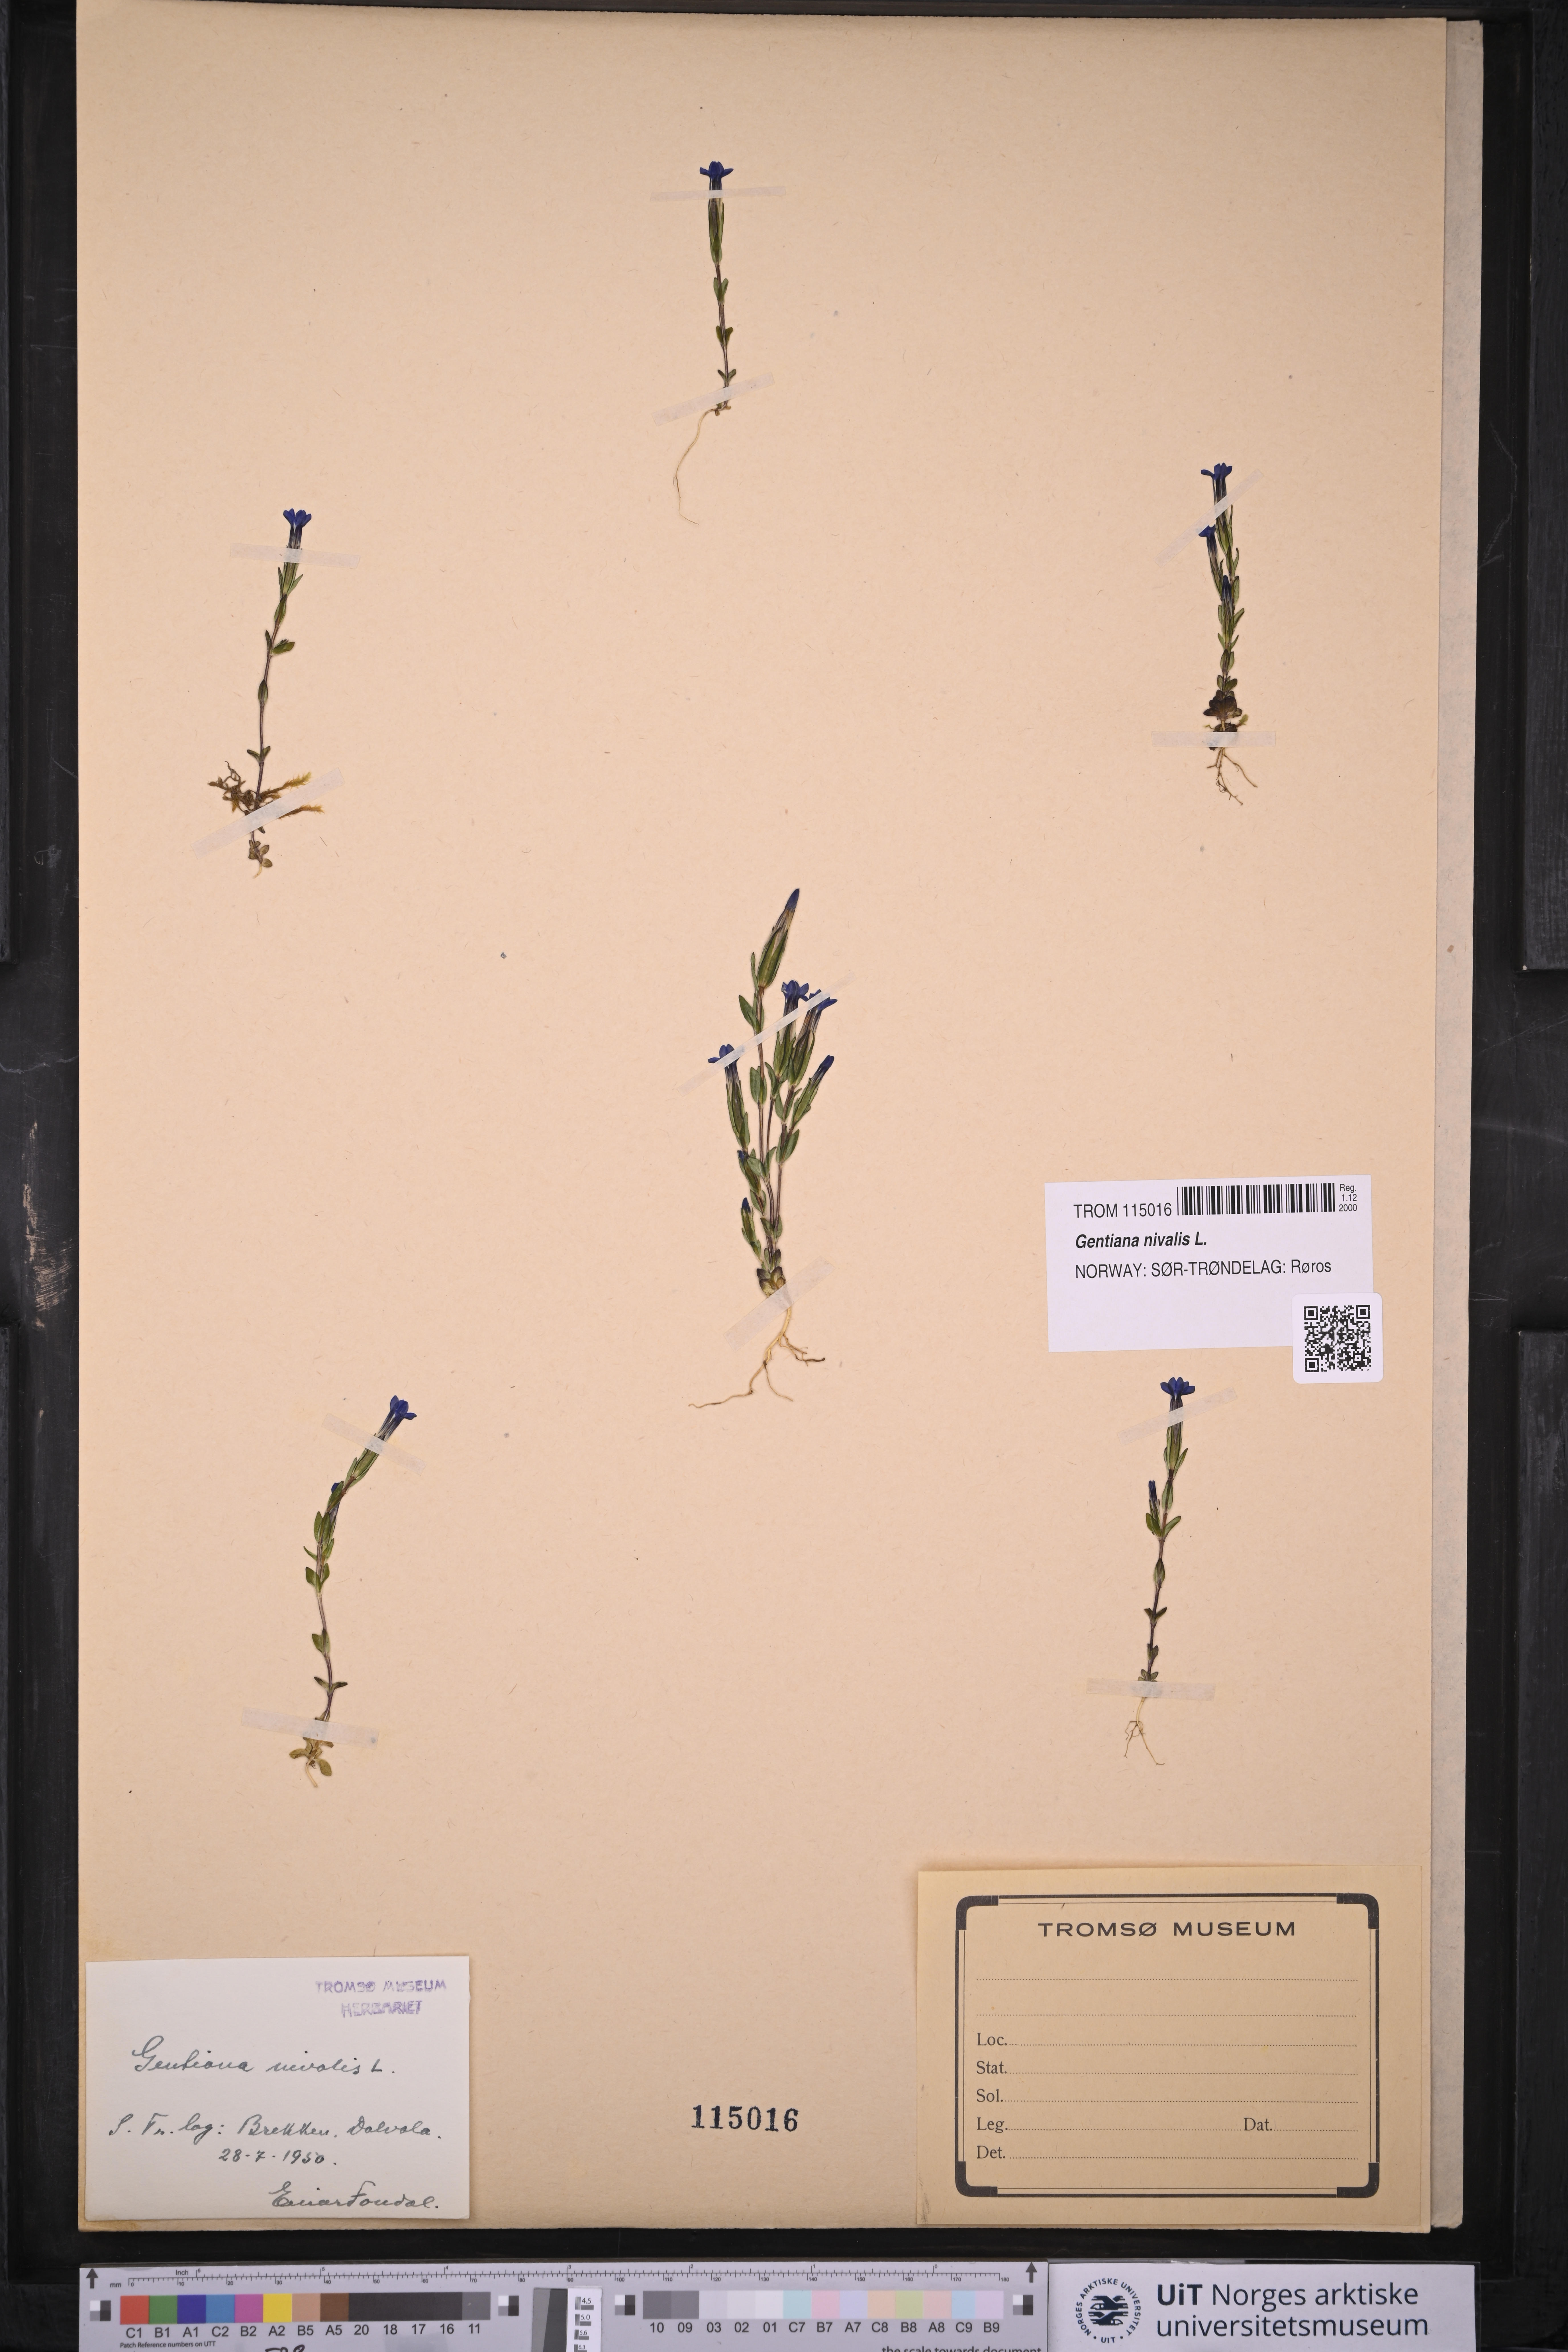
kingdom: Plantae
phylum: Tracheophyta
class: Magnoliopsida
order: Gentianales
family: Gentianaceae
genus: Gentiana
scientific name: Gentiana nivalis
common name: Alpine gentian
